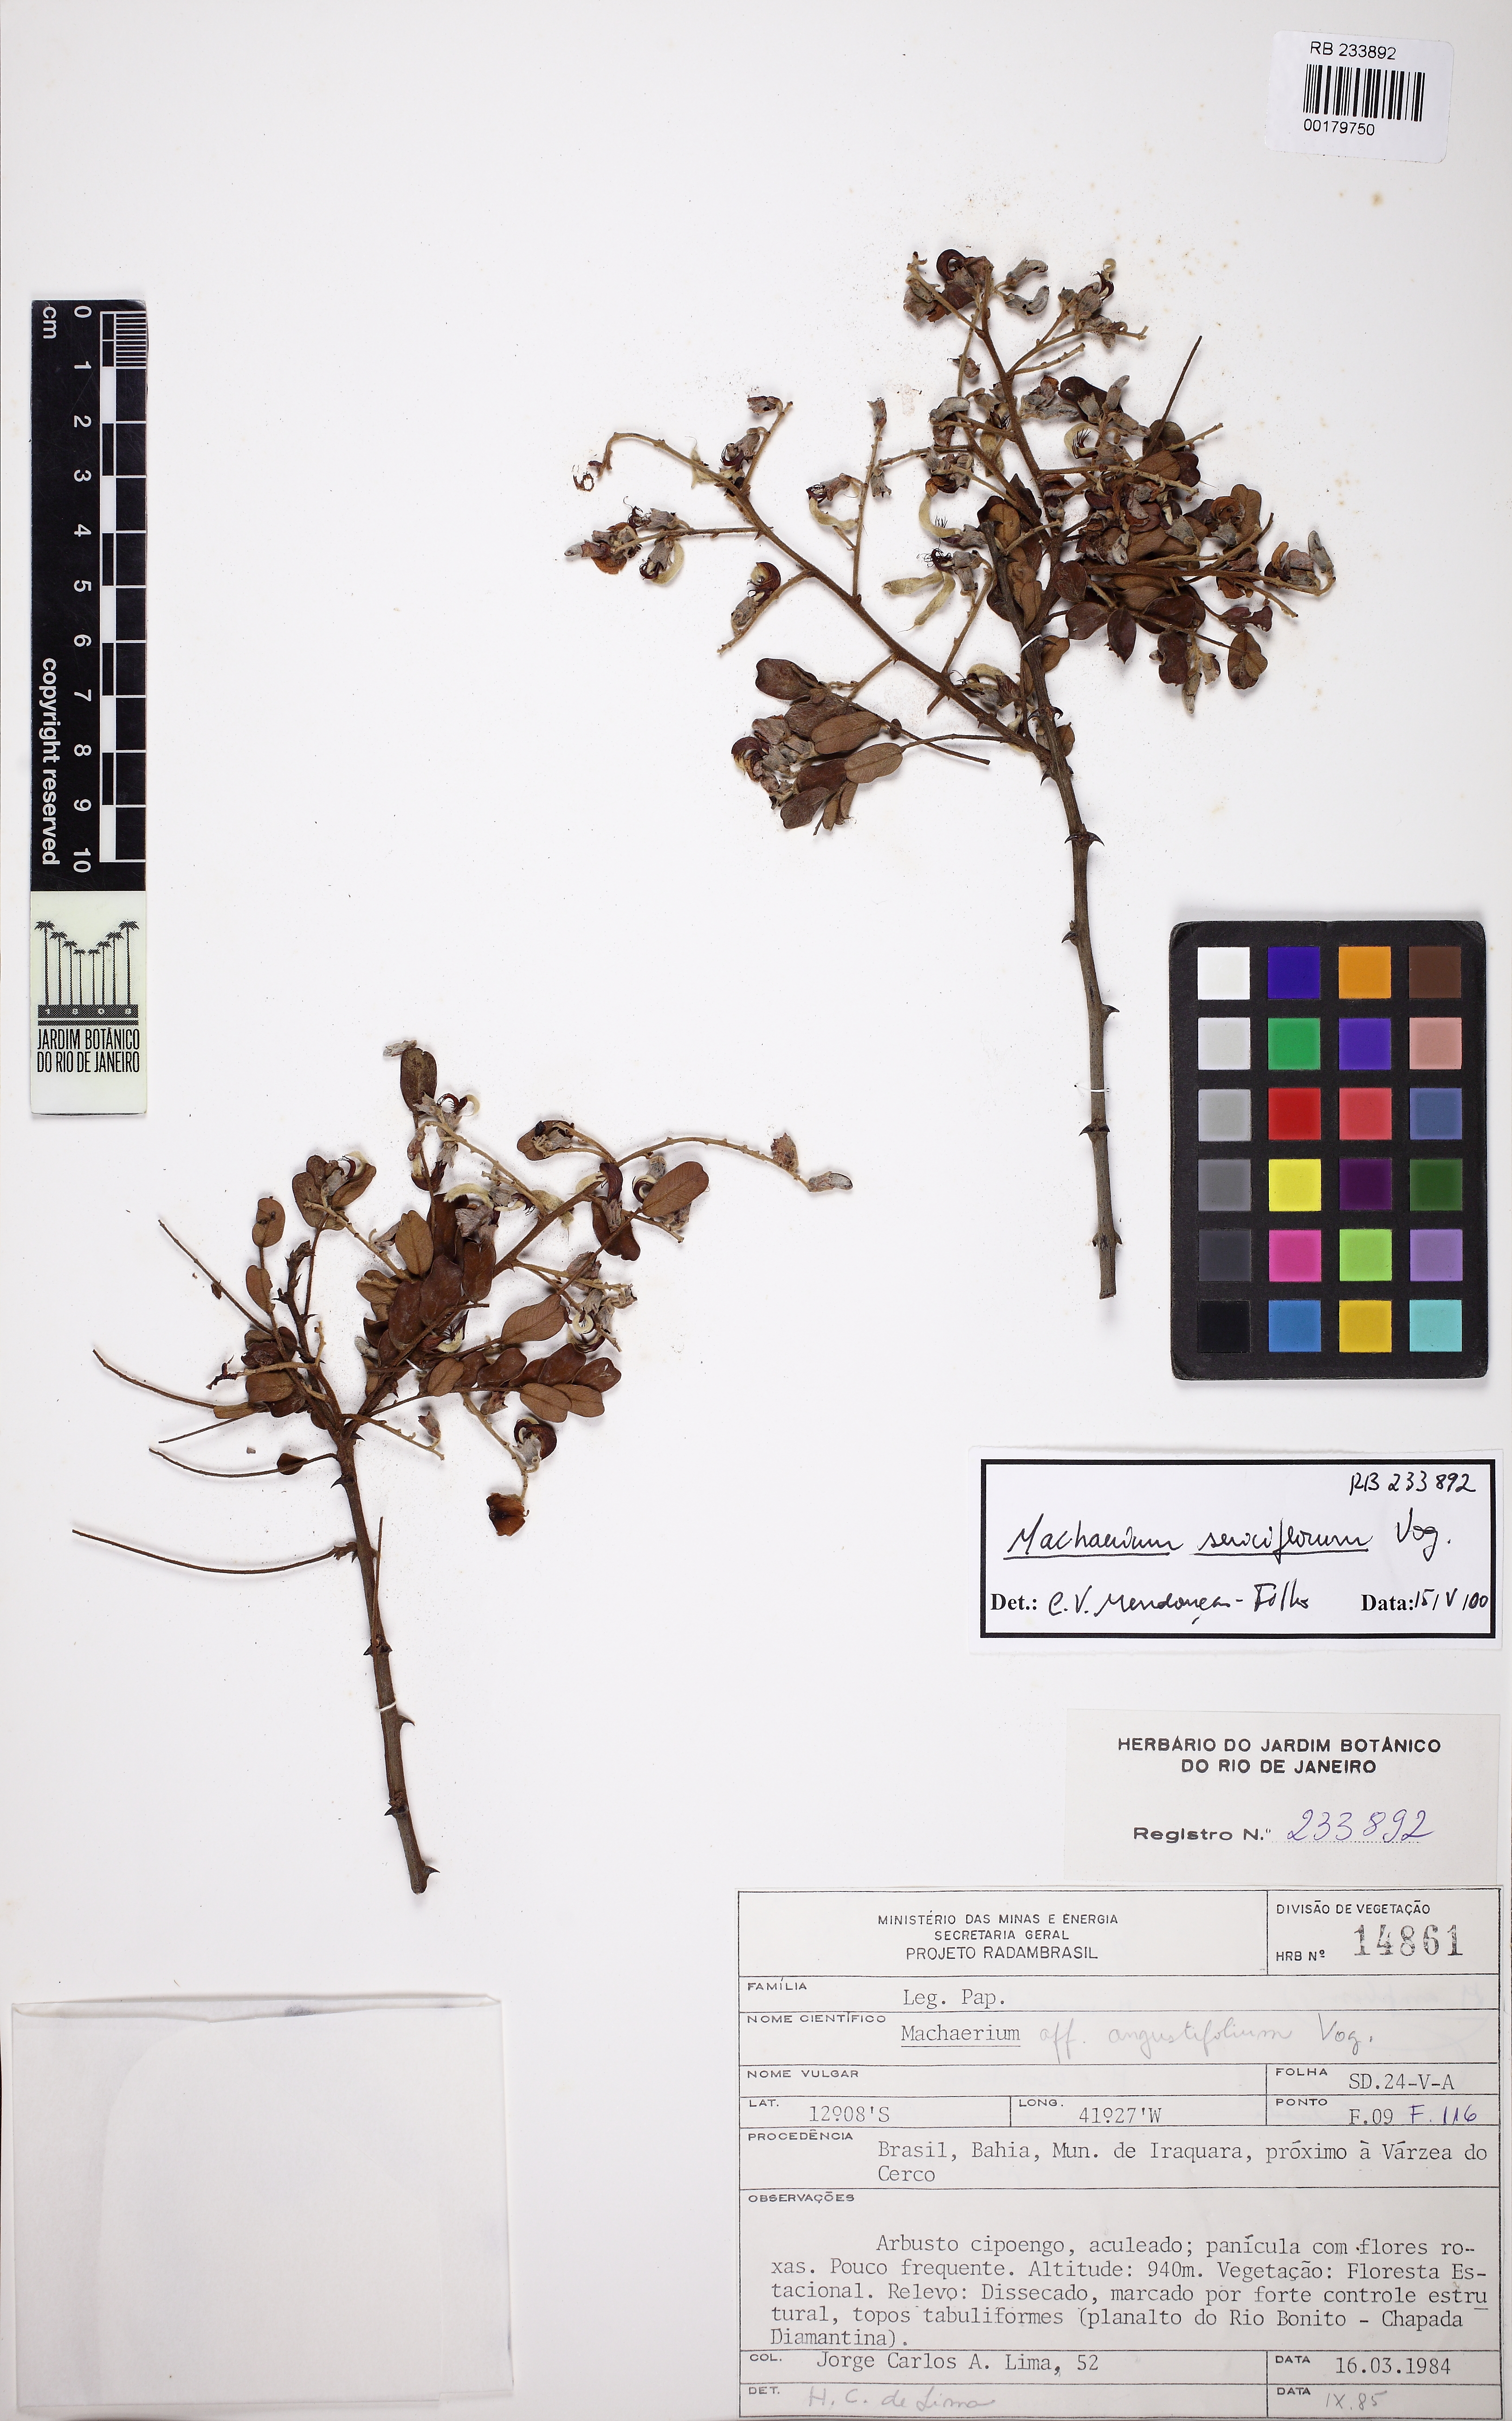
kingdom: Plantae
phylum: Tracheophyta
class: Magnoliopsida
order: Fabales
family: Fabaceae
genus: Machaerium
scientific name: Machaerium sericiflorum
